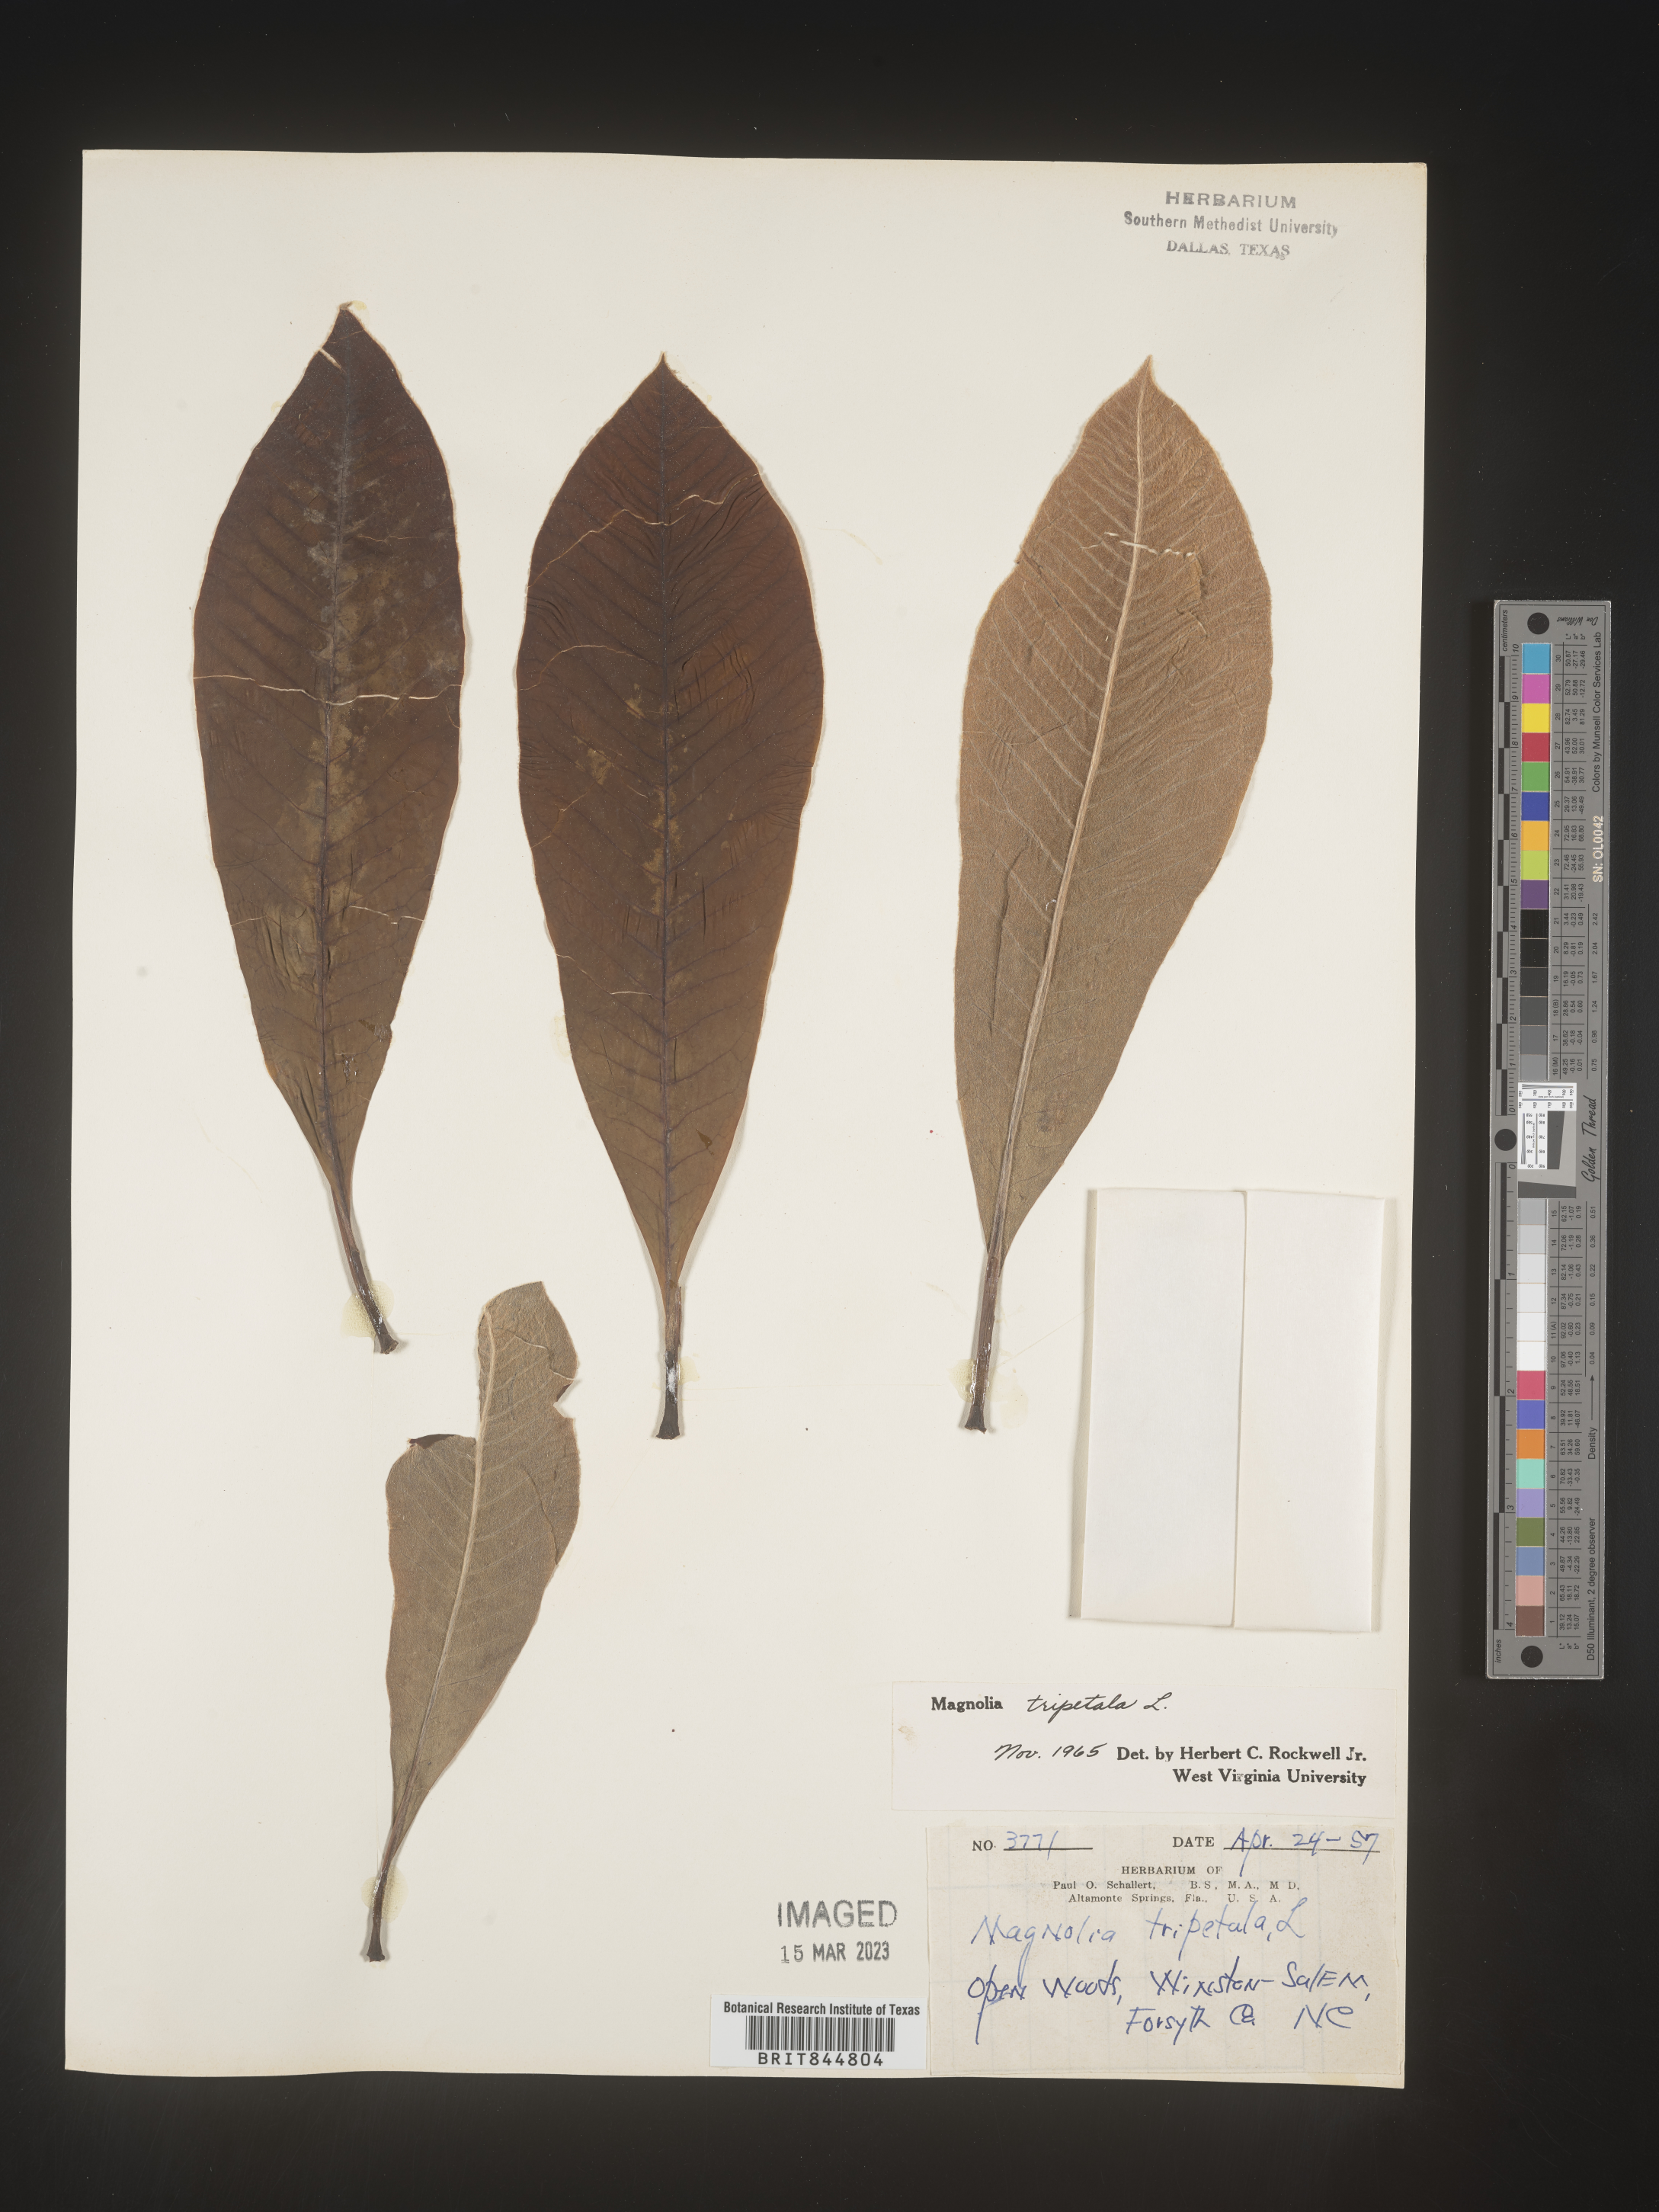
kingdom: Plantae
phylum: Tracheophyta
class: Magnoliopsida
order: Magnoliales
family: Magnoliaceae
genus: Magnolia
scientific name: Magnolia tripetala
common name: Umbrella magnolia
